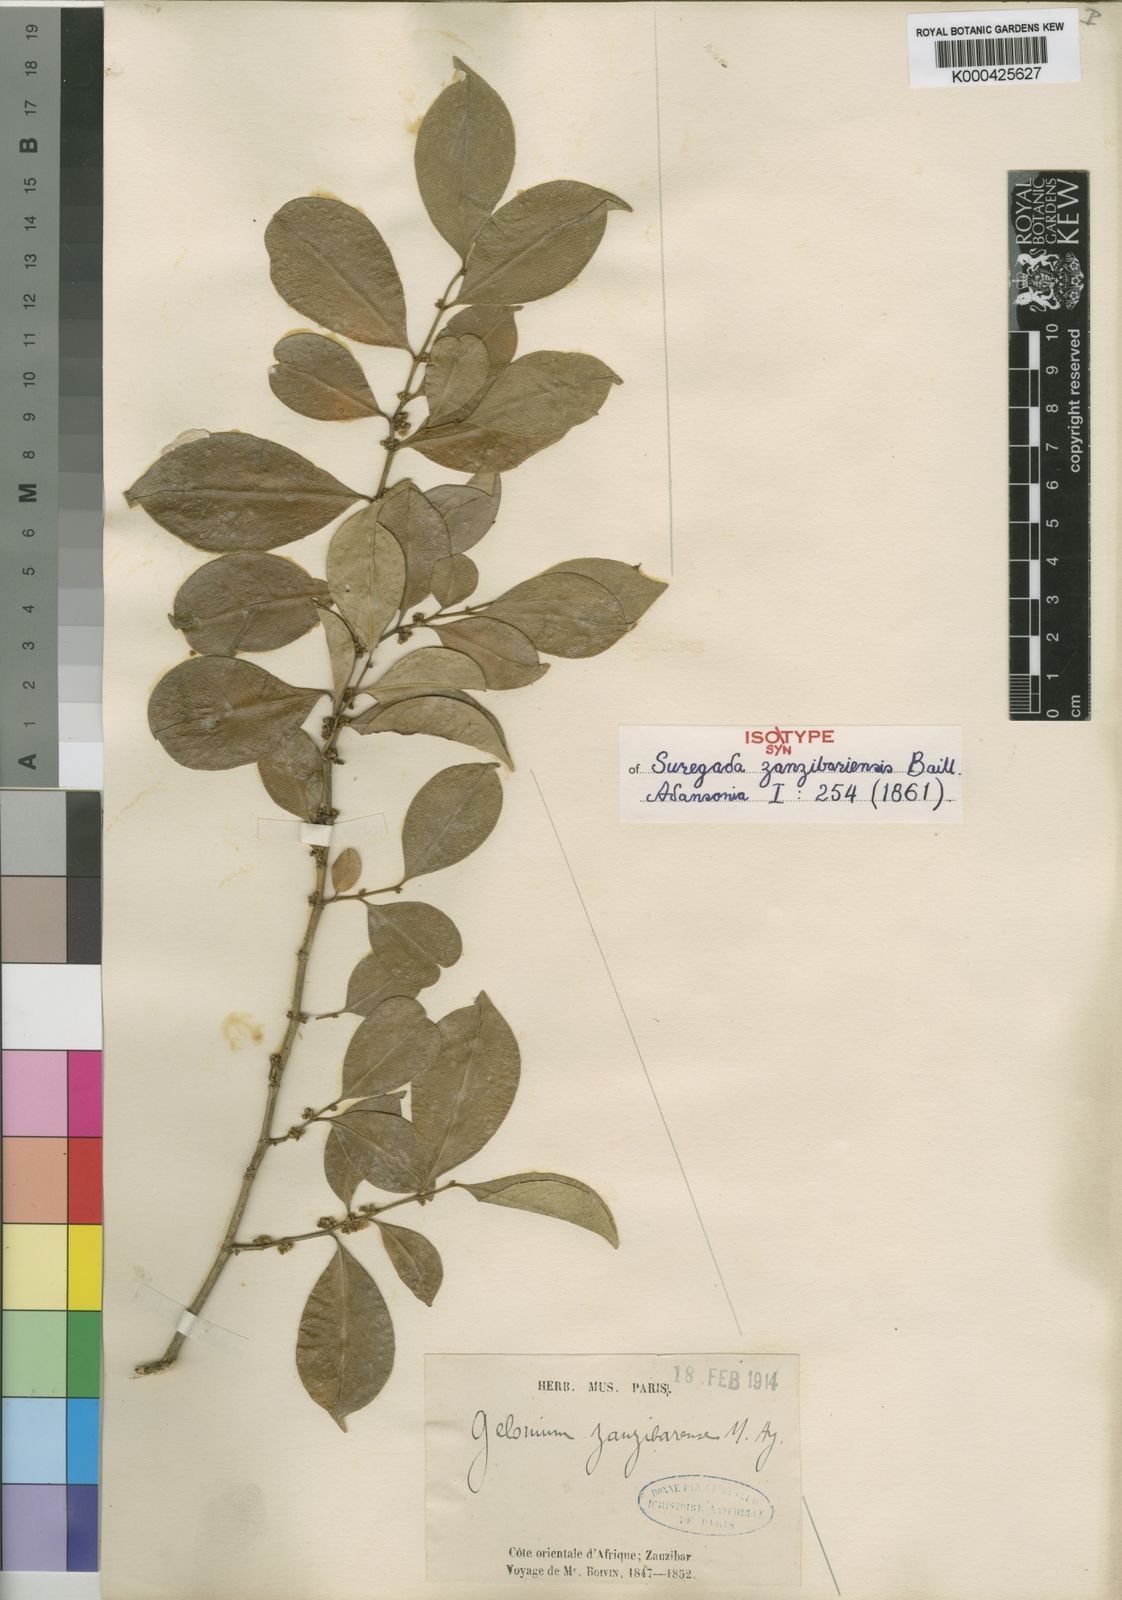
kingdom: Plantae
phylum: Tracheophyta
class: Magnoliopsida
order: Malpighiales
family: Euphorbiaceae
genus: Suregada
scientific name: Suregada zanzibariensis
